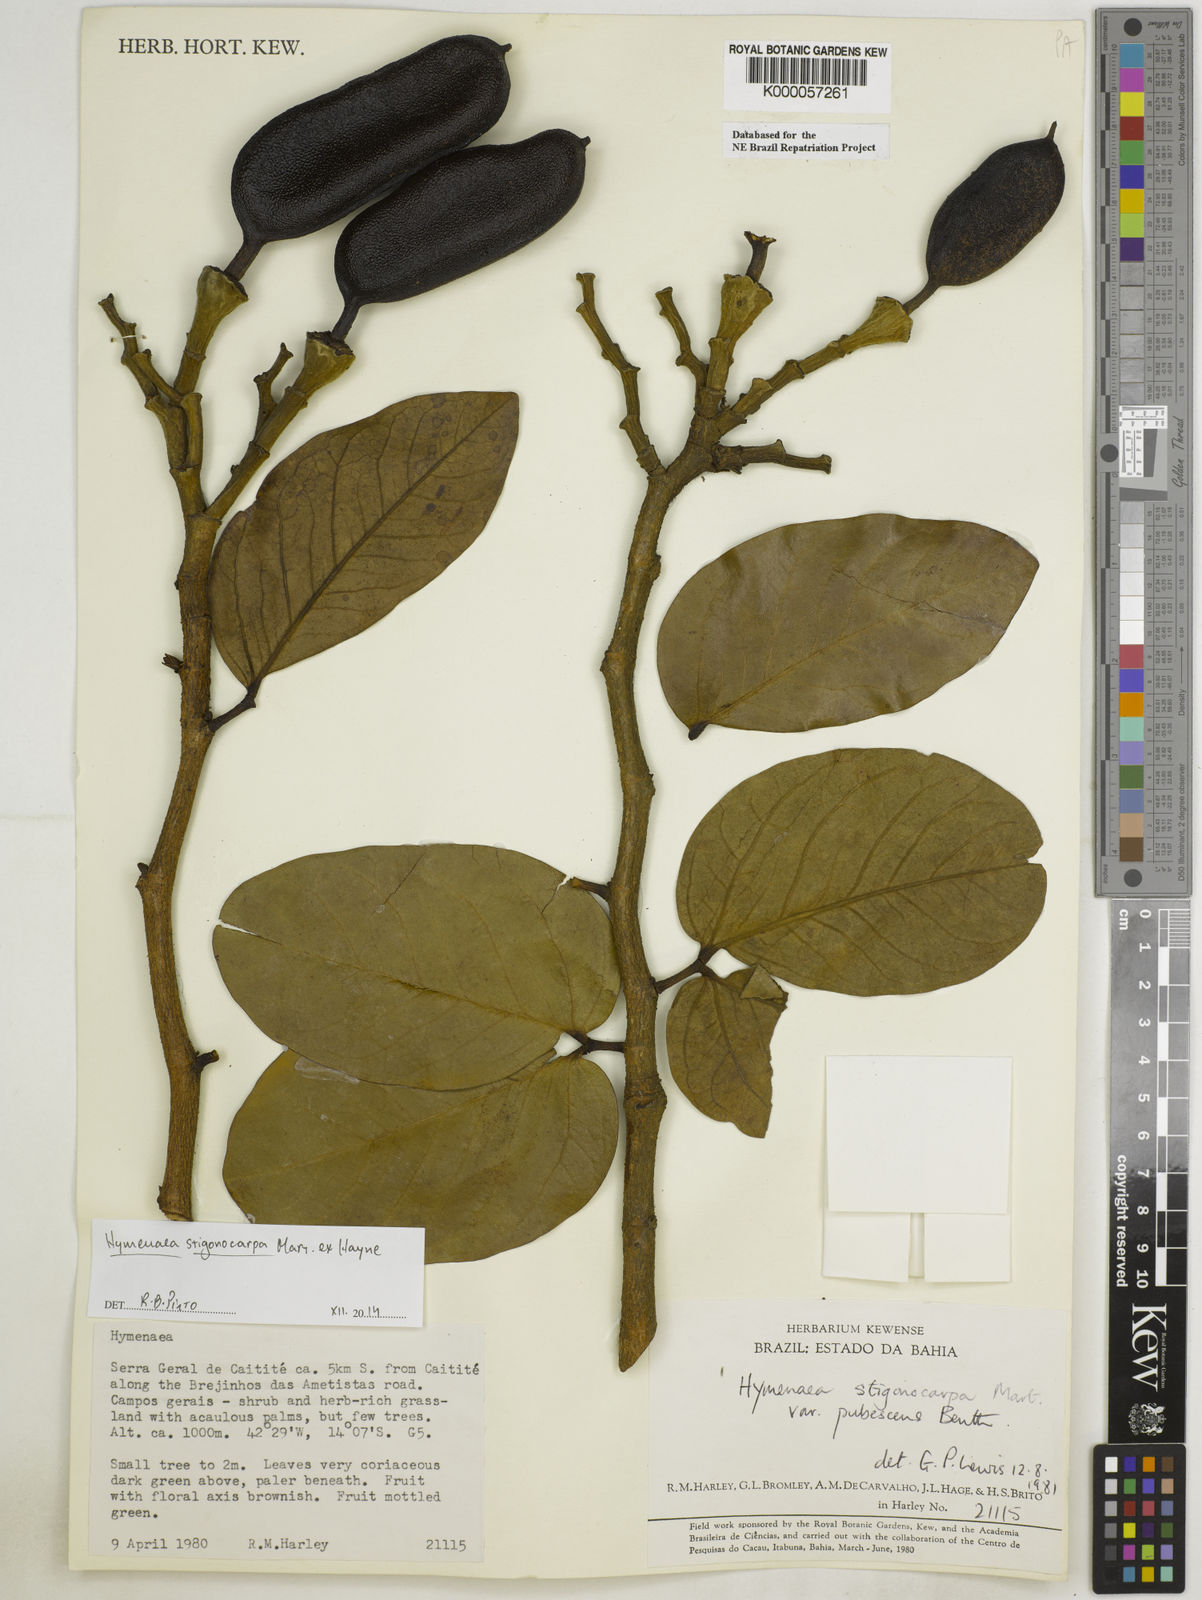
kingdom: Plantae
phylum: Tracheophyta
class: Magnoliopsida
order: Fabales
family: Fabaceae
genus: Hymenaea
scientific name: Hymenaea stigonocarpa
